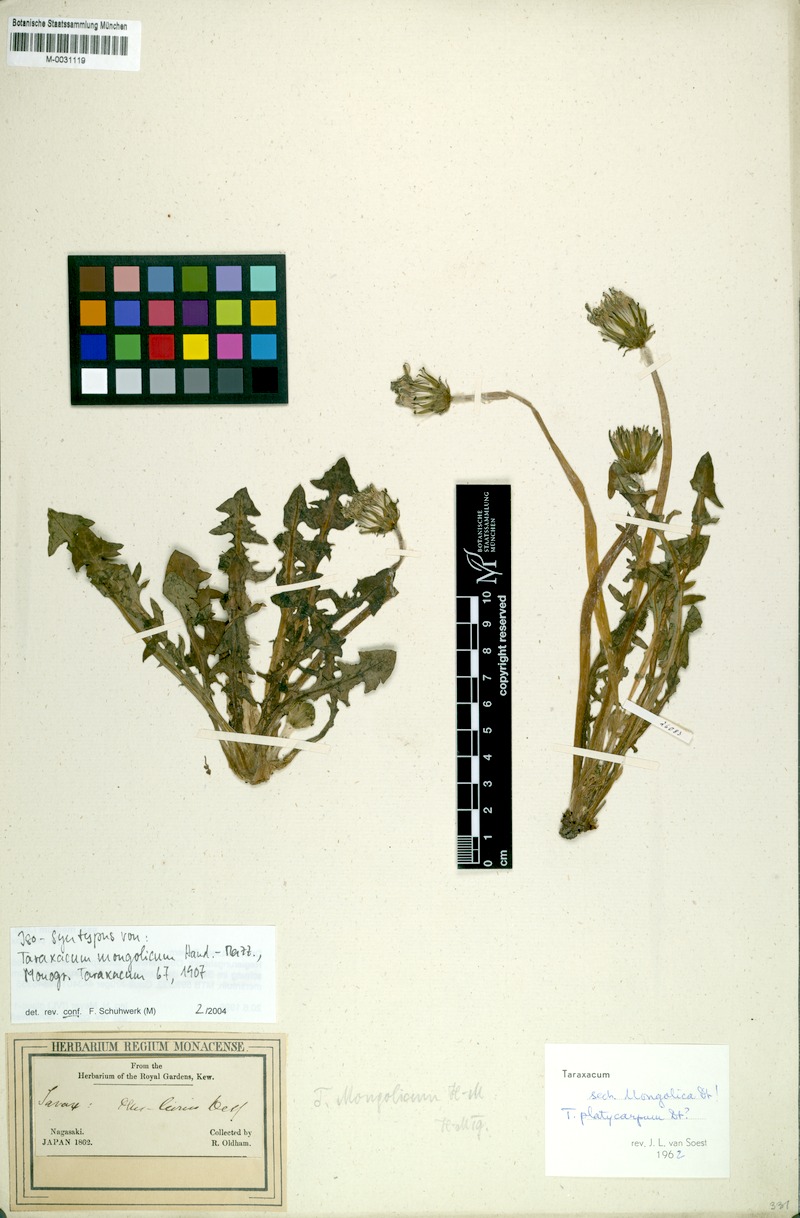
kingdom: Plantae
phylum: Tracheophyta
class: Magnoliopsida
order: Asterales
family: Asteraceae
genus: Taraxacum
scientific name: Taraxacum mongolicum
